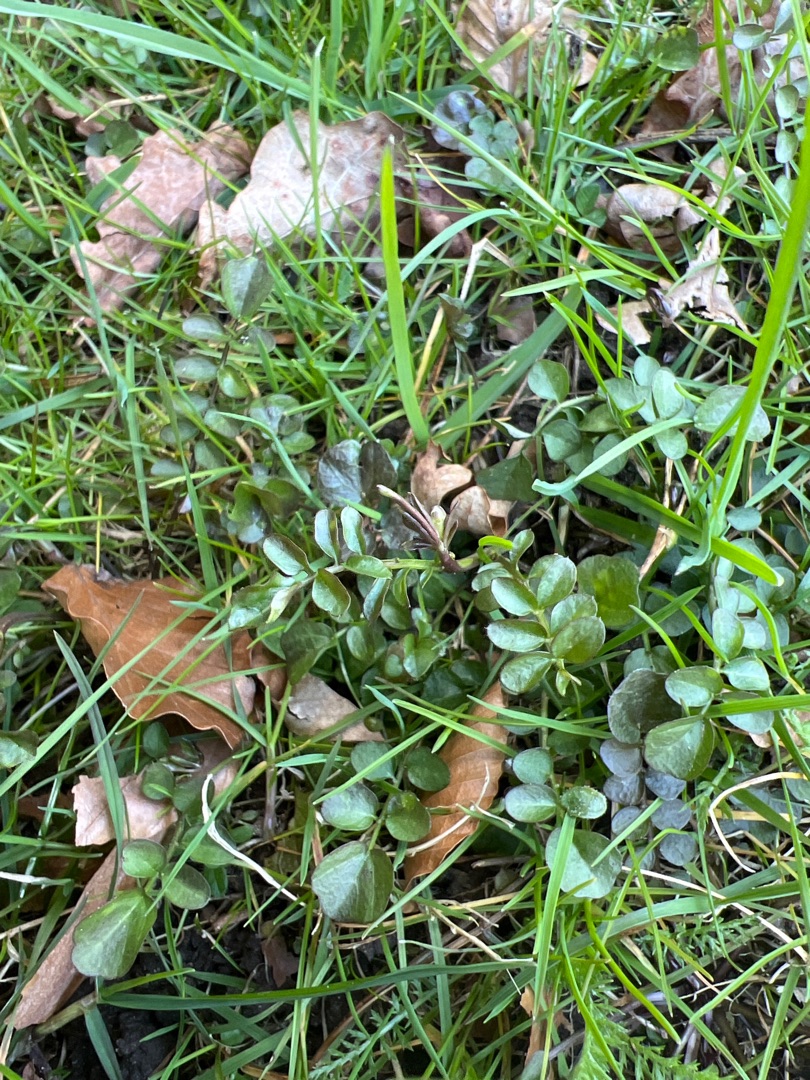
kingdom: Plantae
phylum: Tracheophyta
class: Magnoliopsida
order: Brassicales
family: Brassicaceae
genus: Cardamine
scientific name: Cardamine hirsuta
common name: Roset-springklap
